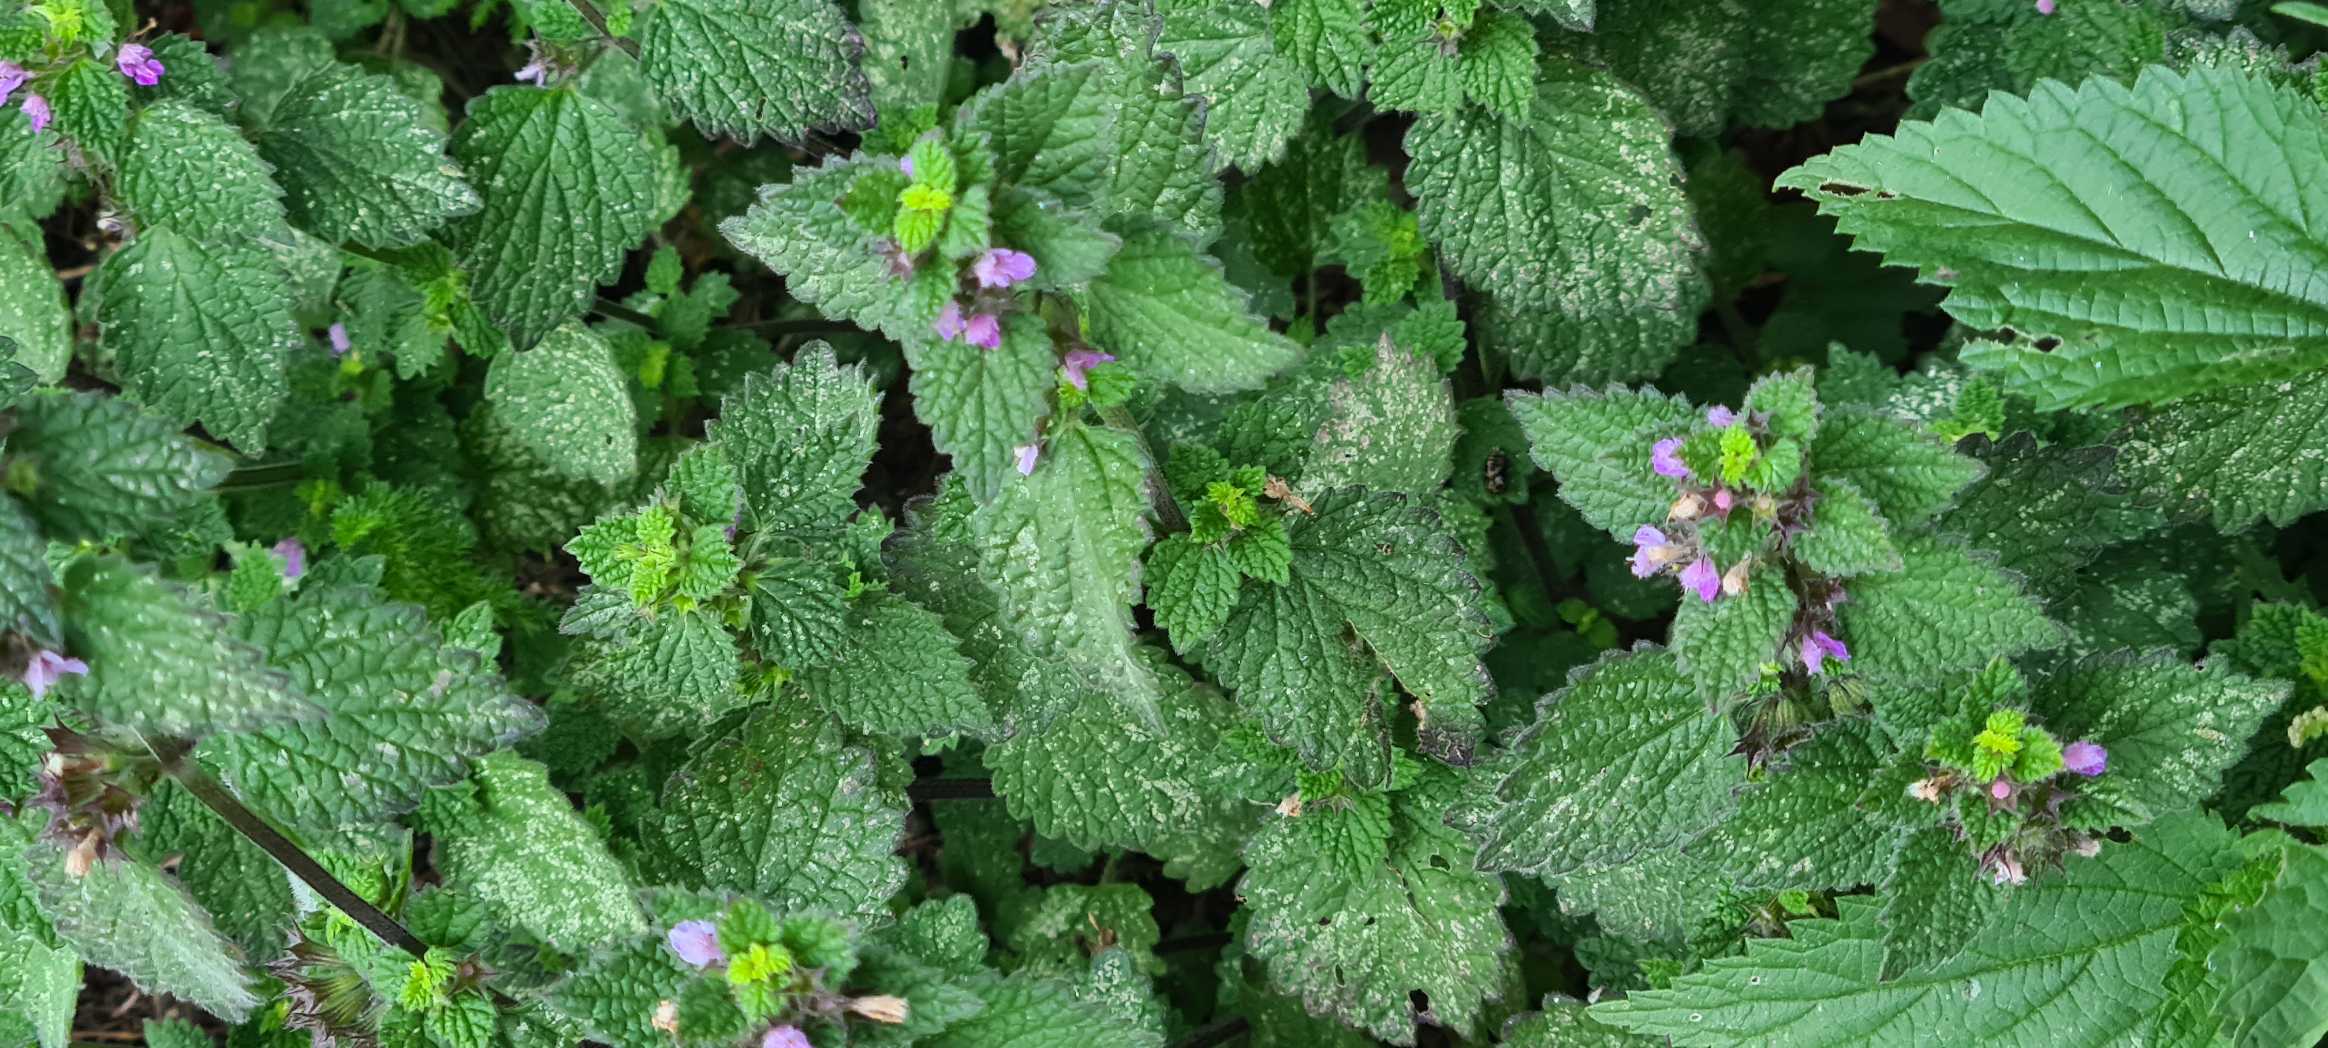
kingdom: Plantae
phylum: Tracheophyta
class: Magnoliopsida
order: Lamiales
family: Lamiaceae
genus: Lamium
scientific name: Lamium purpureum
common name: Rød tvetand
